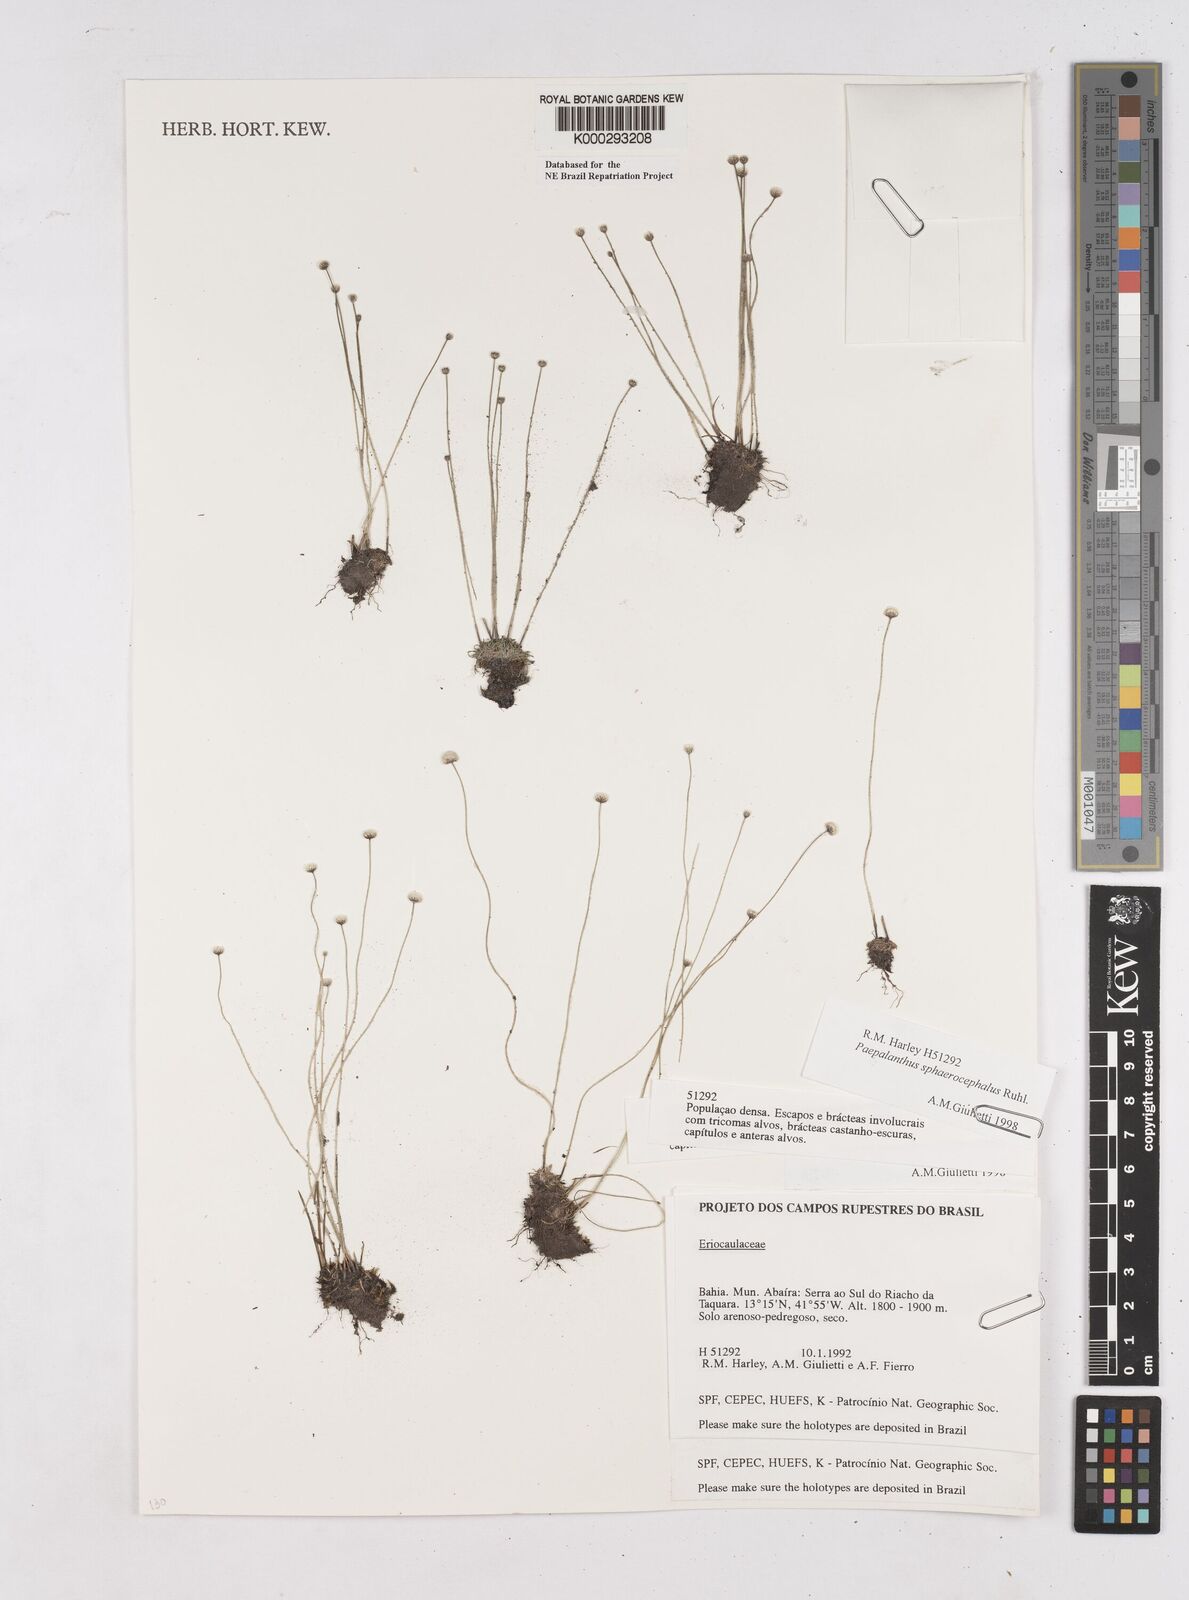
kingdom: Plantae
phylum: Tracheophyta
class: Liliopsida
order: Poales
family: Eriocaulaceae
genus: Paepalanthus
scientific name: Paepalanthus sphaerocephalus
